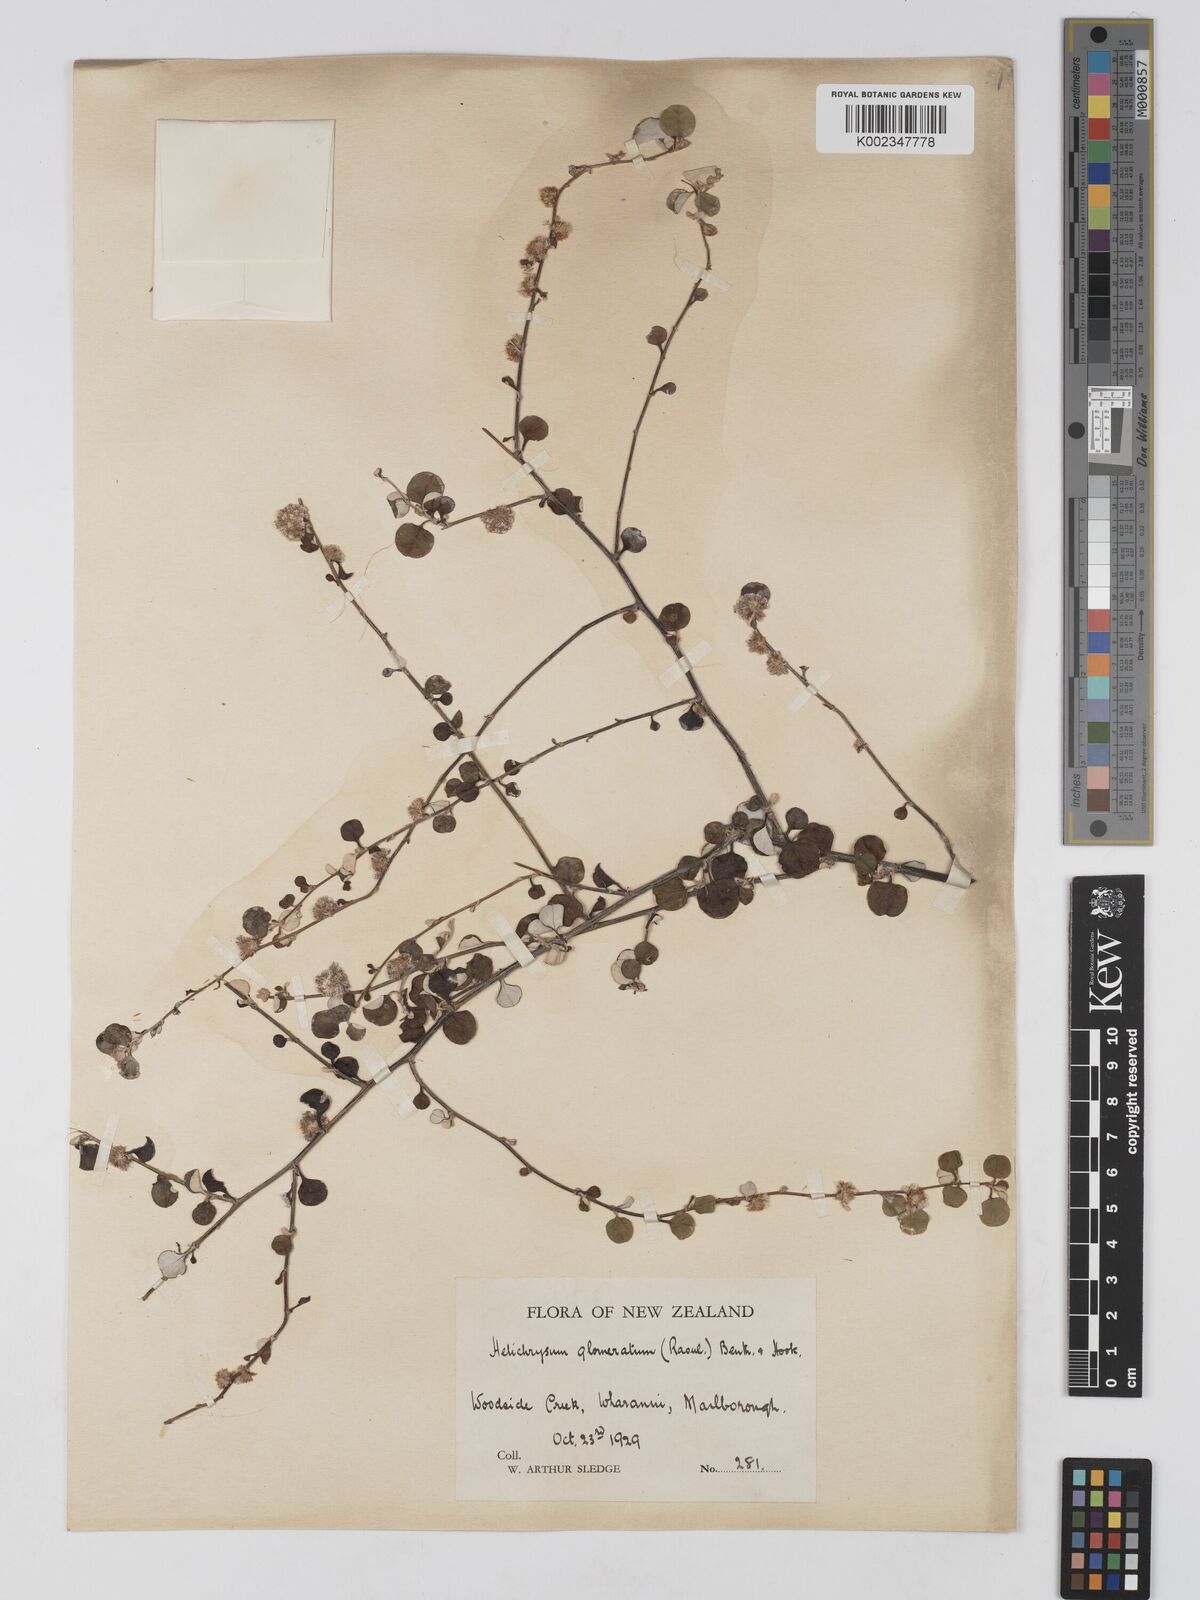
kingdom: Plantae
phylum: Tracheophyta
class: Magnoliopsida
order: Asterales
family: Asteraceae
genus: Ozothamnus
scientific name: Ozothamnus glomeratus
